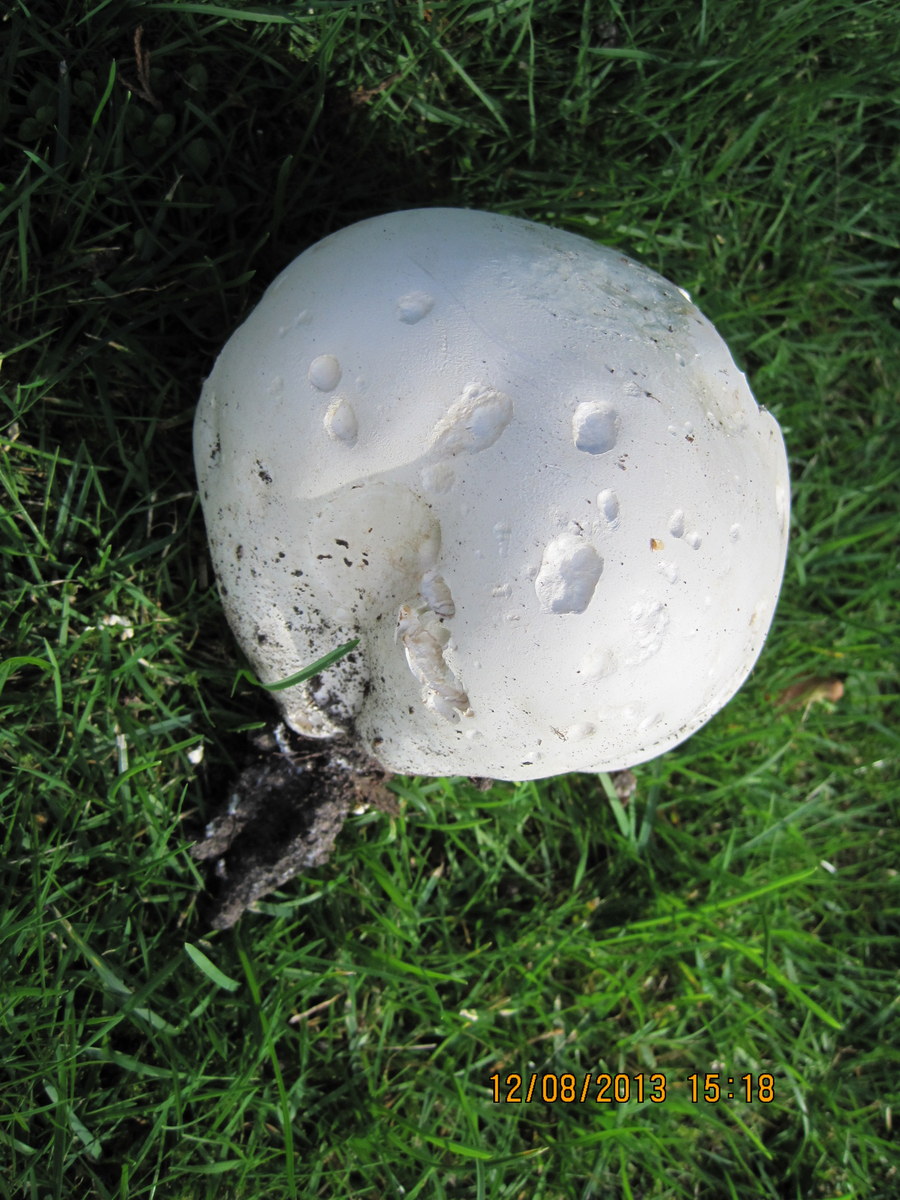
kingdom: Fungi
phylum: Basidiomycota
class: Agaricomycetes
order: Agaricales
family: Lycoperdaceae
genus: Calvatia
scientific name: Calvatia gigantea
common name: kæmpestøvbold
